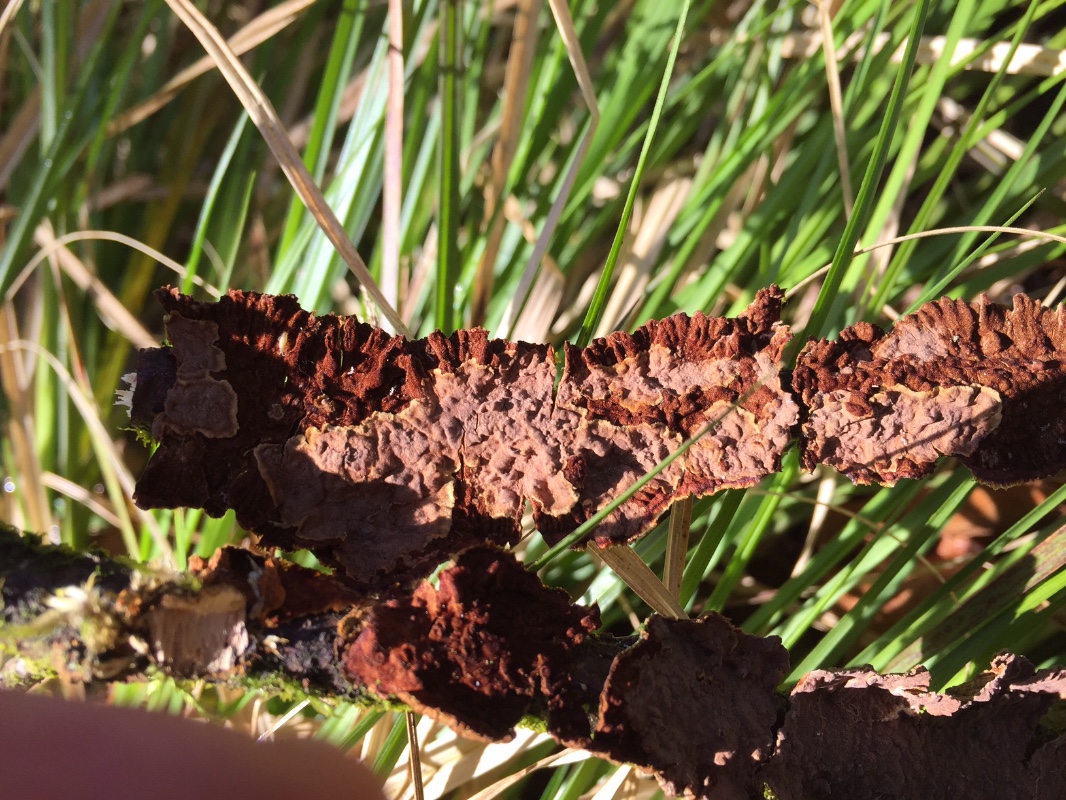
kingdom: Fungi
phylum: Basidiomycota
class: Agaricomycetes
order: Hymenochaetales
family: Hymenochaetaceae
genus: Hydnoporia
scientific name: Hydnoporia tabacina
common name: tobaksbrun ruslædersvamp
